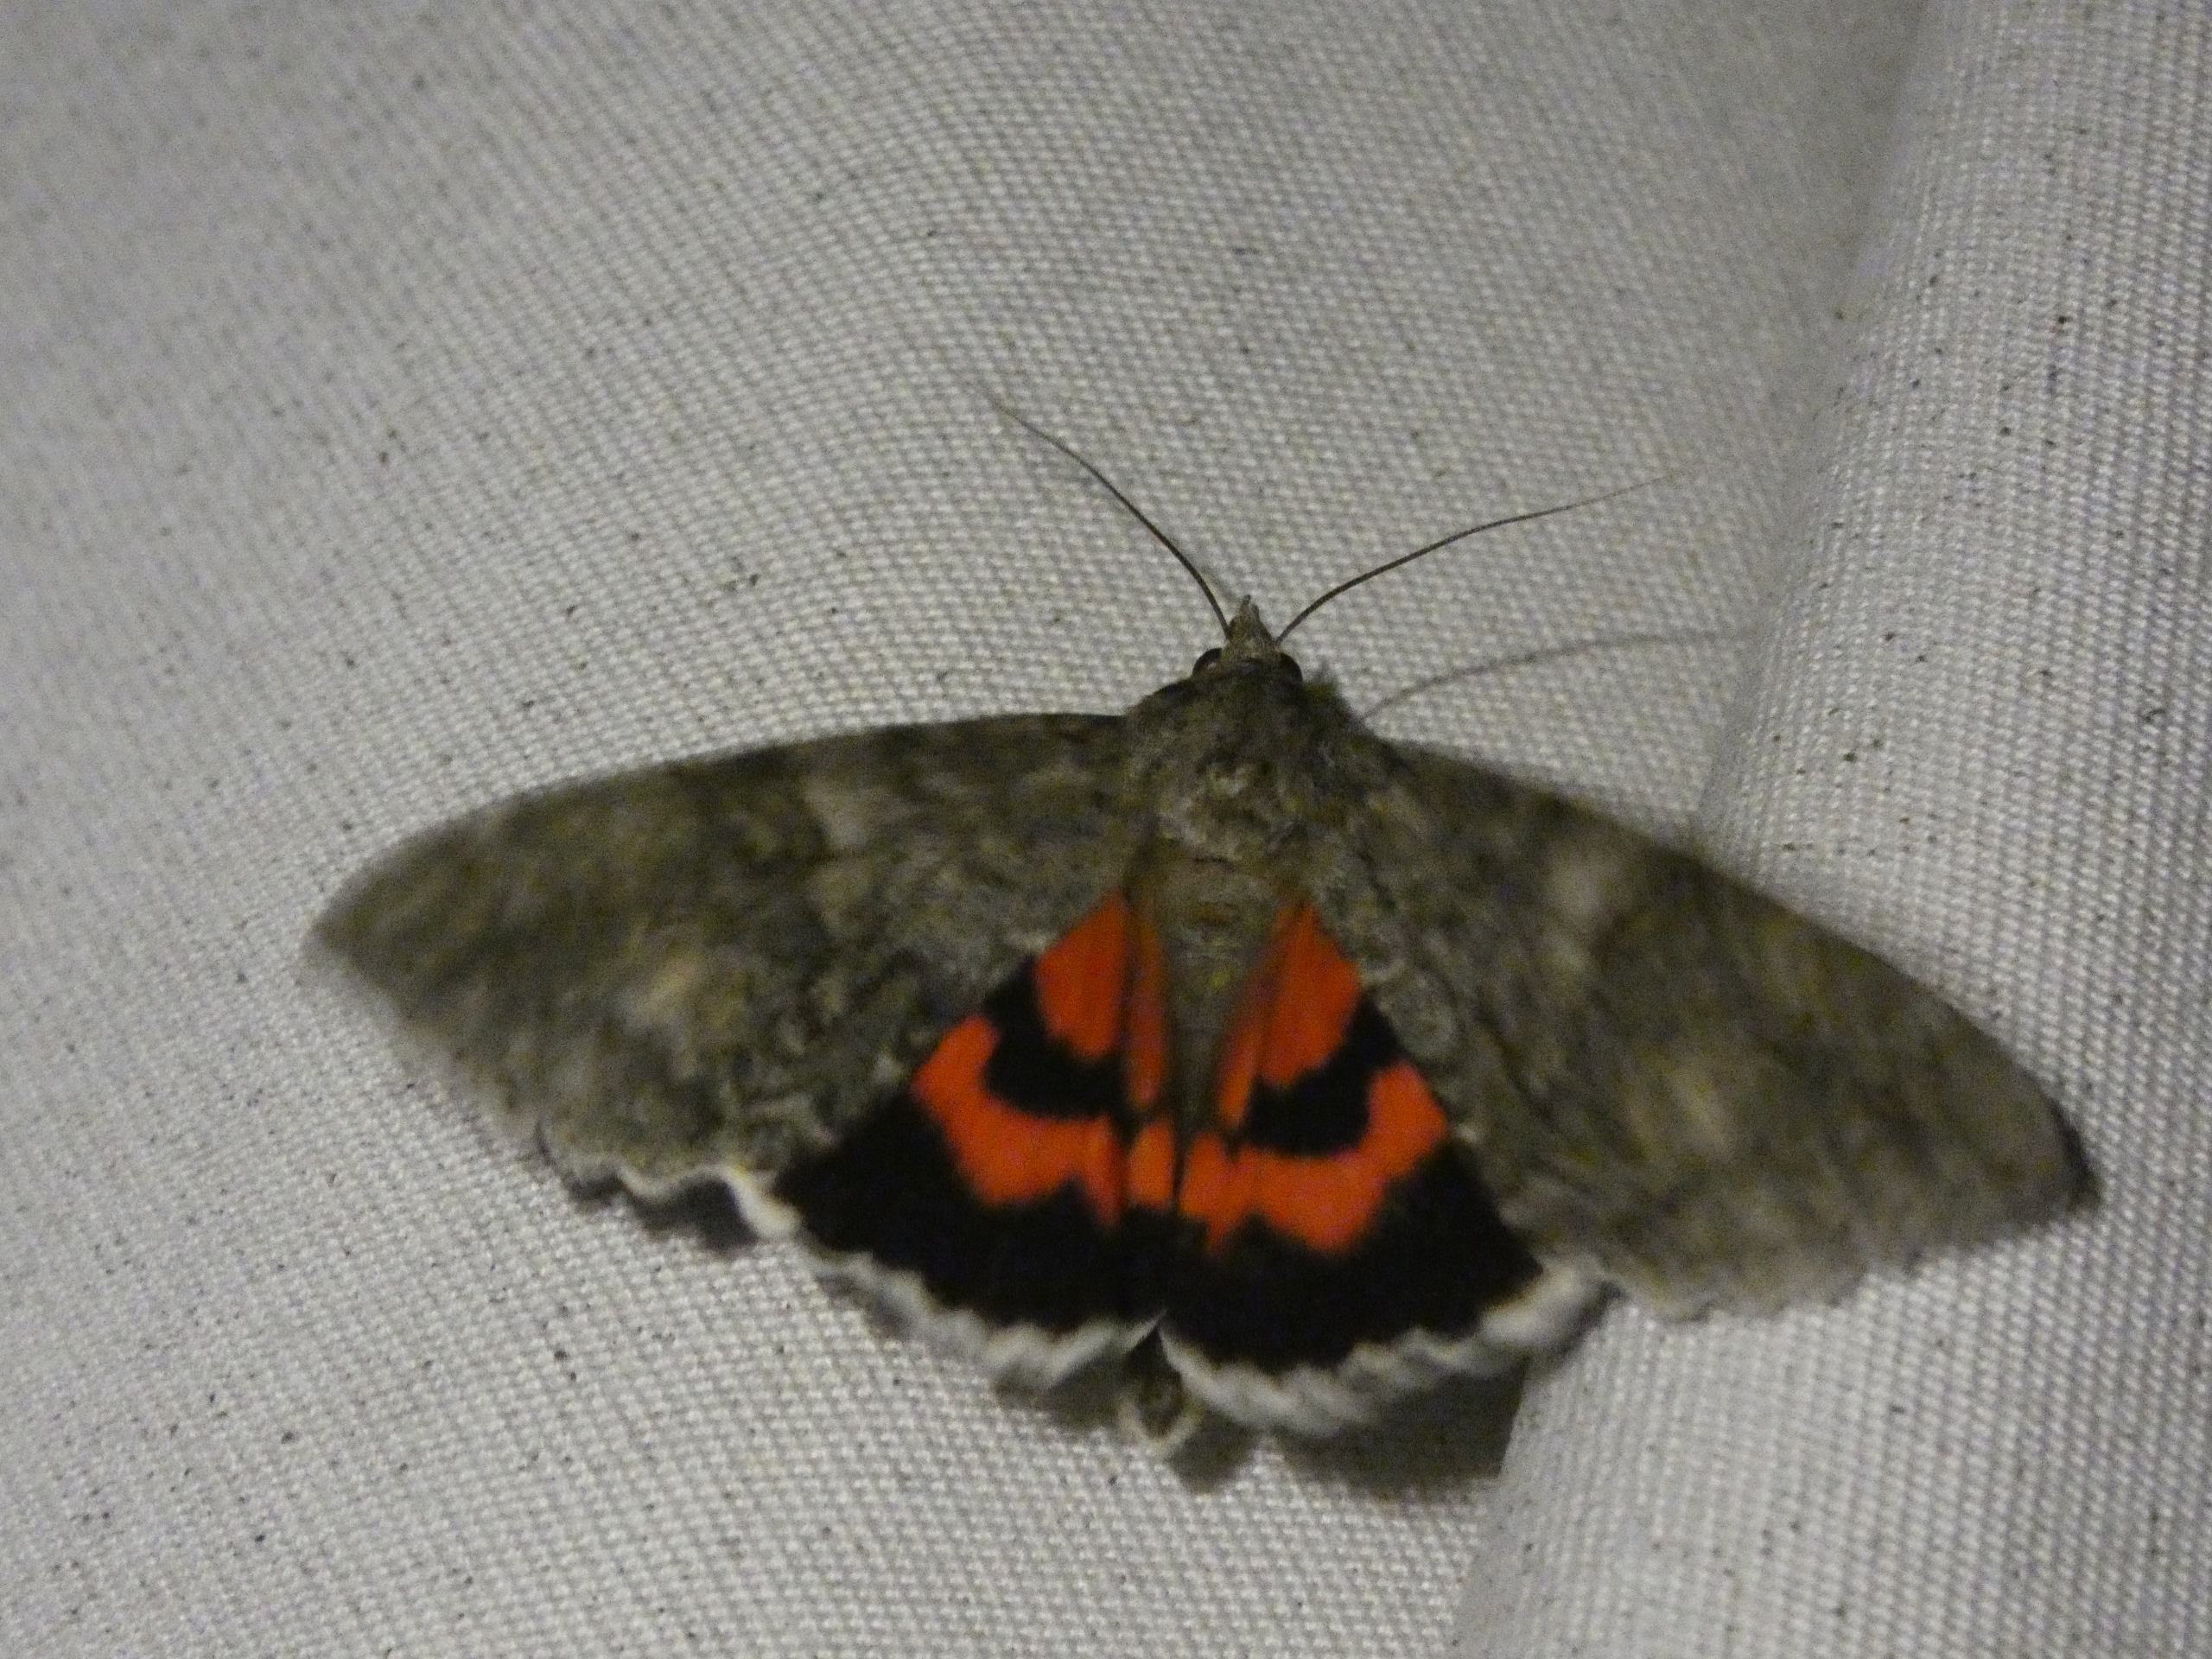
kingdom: Animalia
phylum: Arthropoda
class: Insecta
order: Lepidoptera
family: Erebidae
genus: Catocala
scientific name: Catocala nupta
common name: Rødt ordensbånd
